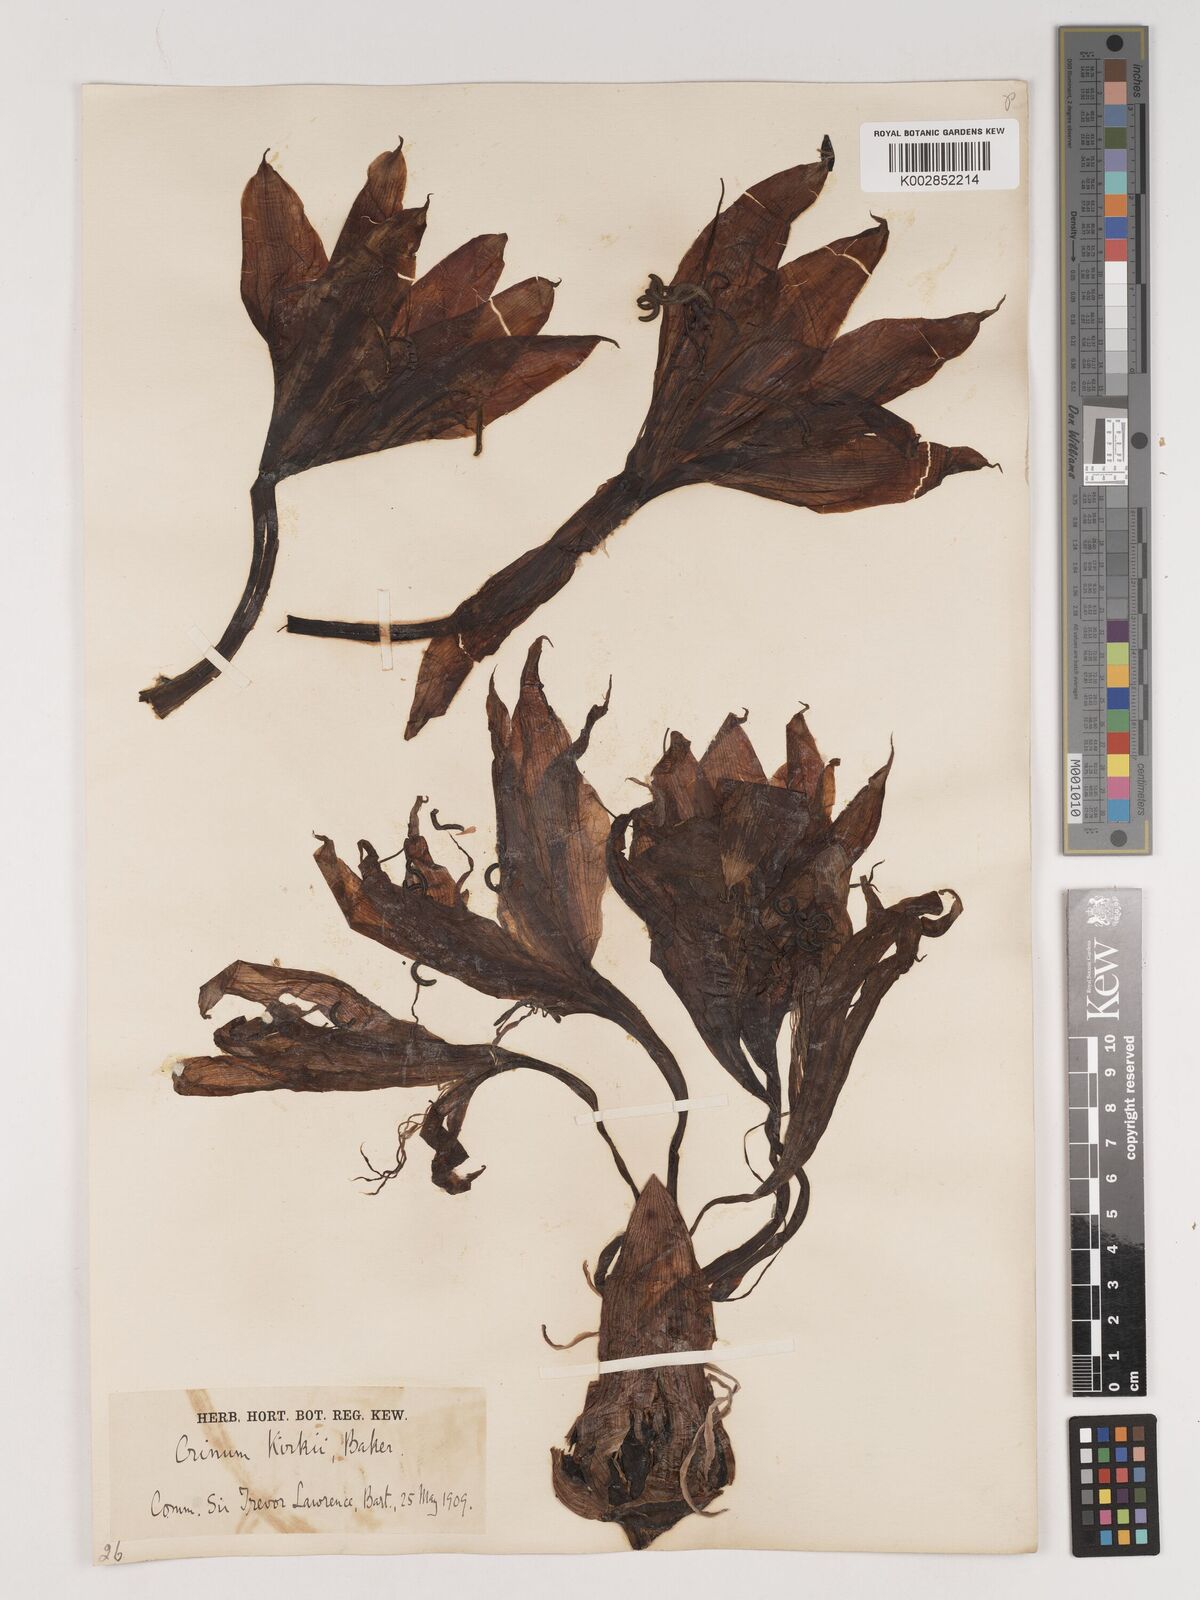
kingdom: Plantae
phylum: Tracheophyta
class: Liliopsida
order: Asparagales
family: Amaryllidaceae
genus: Crinum
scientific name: Crinum kirkii
